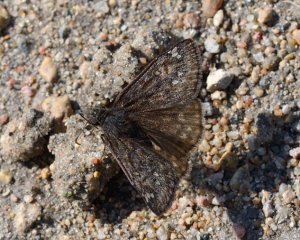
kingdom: Animalia
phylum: Arthropoda
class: Insecta
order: Lepidoptera
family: Hesperiidae
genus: Gesta
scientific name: Gesta
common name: Juvenal's Duskywing
